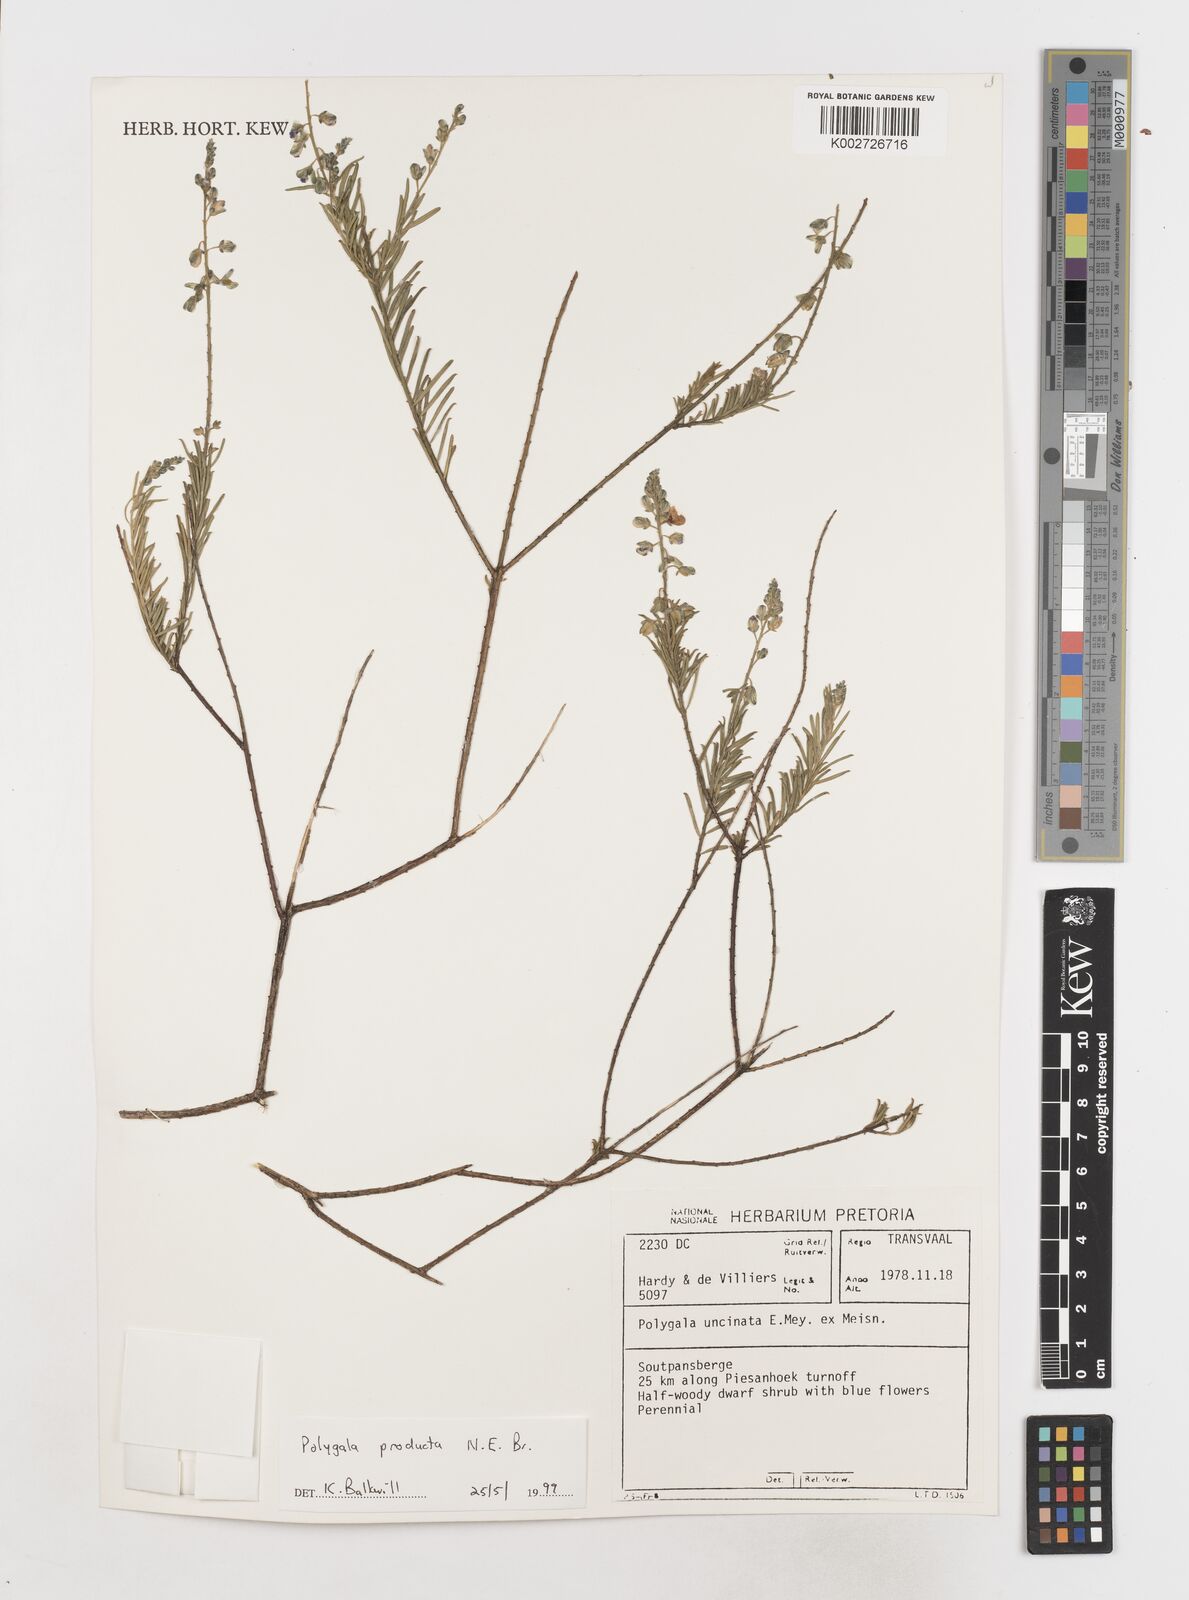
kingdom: Plantae
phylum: Tracheophyta
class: Magnoliopsida
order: Fabales
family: Polygalaceae
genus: Polygala
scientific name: Polygala producta
